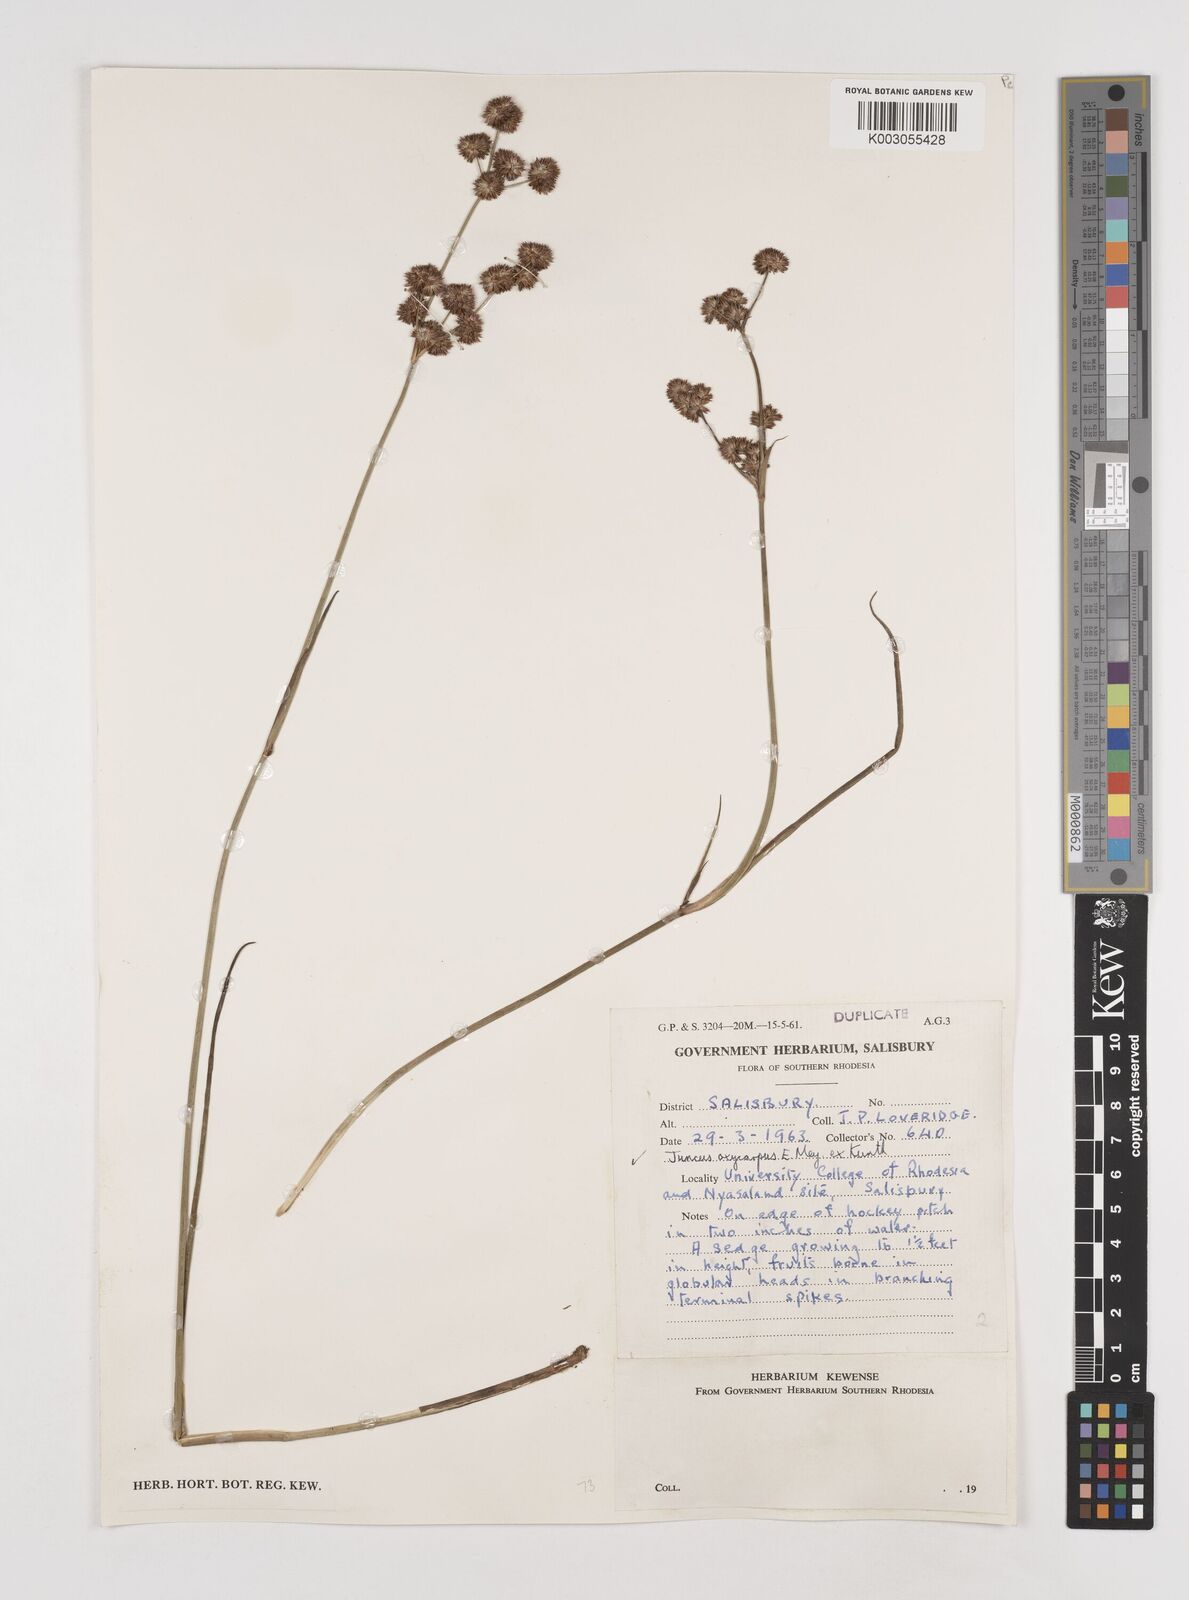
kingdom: Plantae
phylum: Tracheophyta
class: Liliopsida
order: Poales
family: Juncaceae
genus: Juncus
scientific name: Juncus oxycarpus
